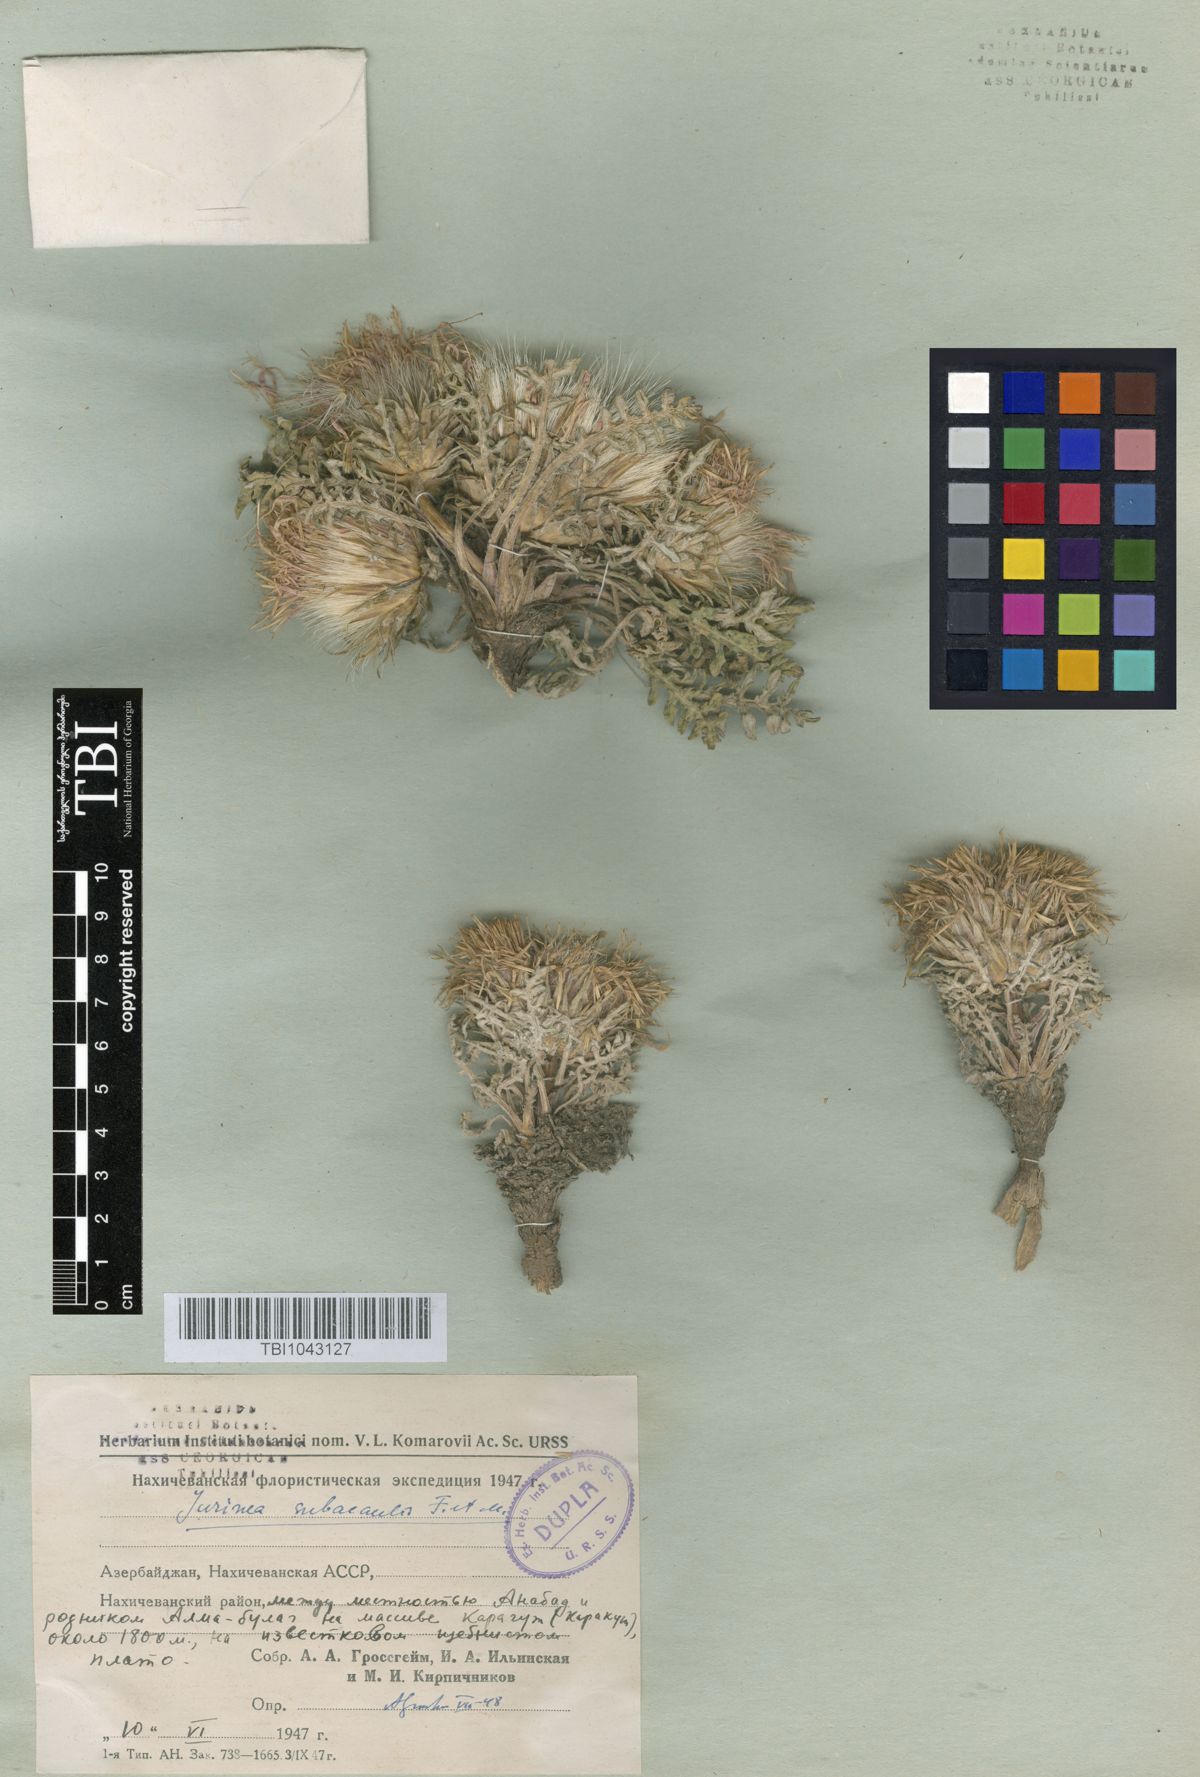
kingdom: Plantae
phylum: Tracheophyta
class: Magnoliopsida
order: Asterales
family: Asteraceae
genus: Jurinea
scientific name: Jurinea moschus
